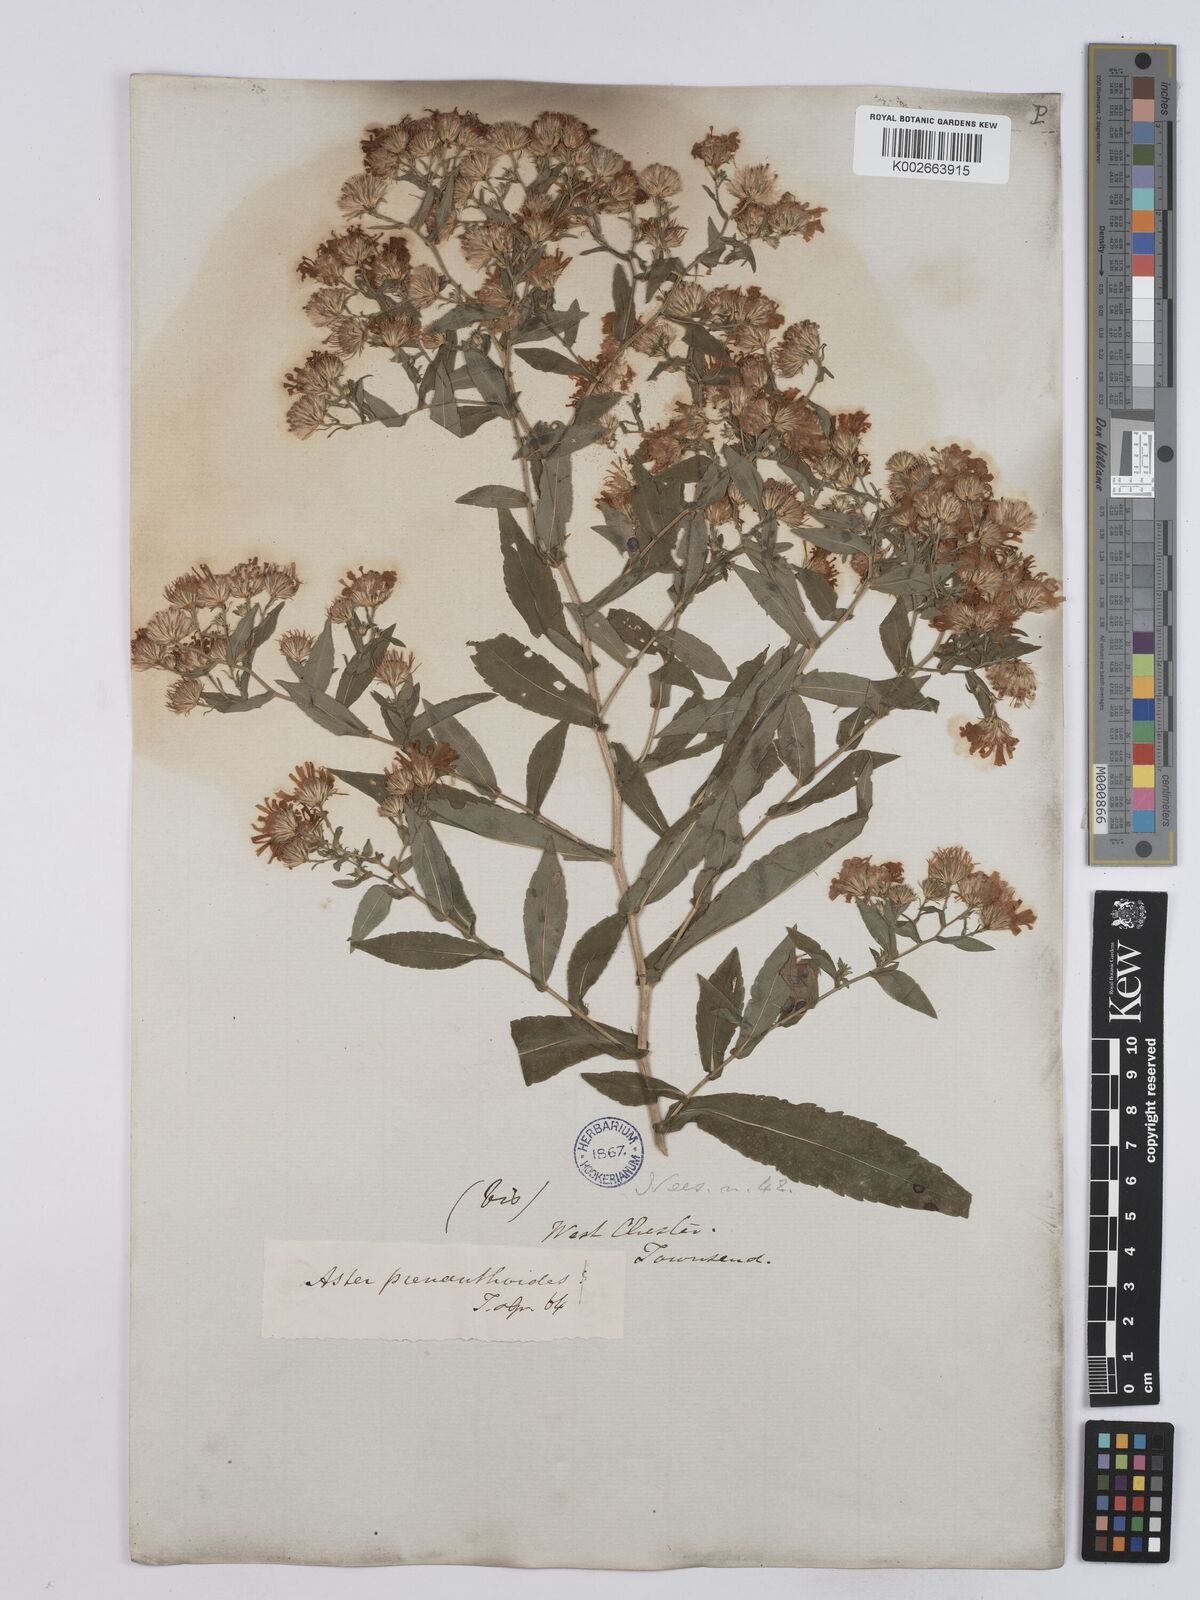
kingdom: Plantae
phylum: Tracheophyta
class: Magnoliopsida
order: Asterales
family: Asteraceae
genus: Symphyotrichum
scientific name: Symphyotrichum prenanthoides
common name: Crooked-stem aster
